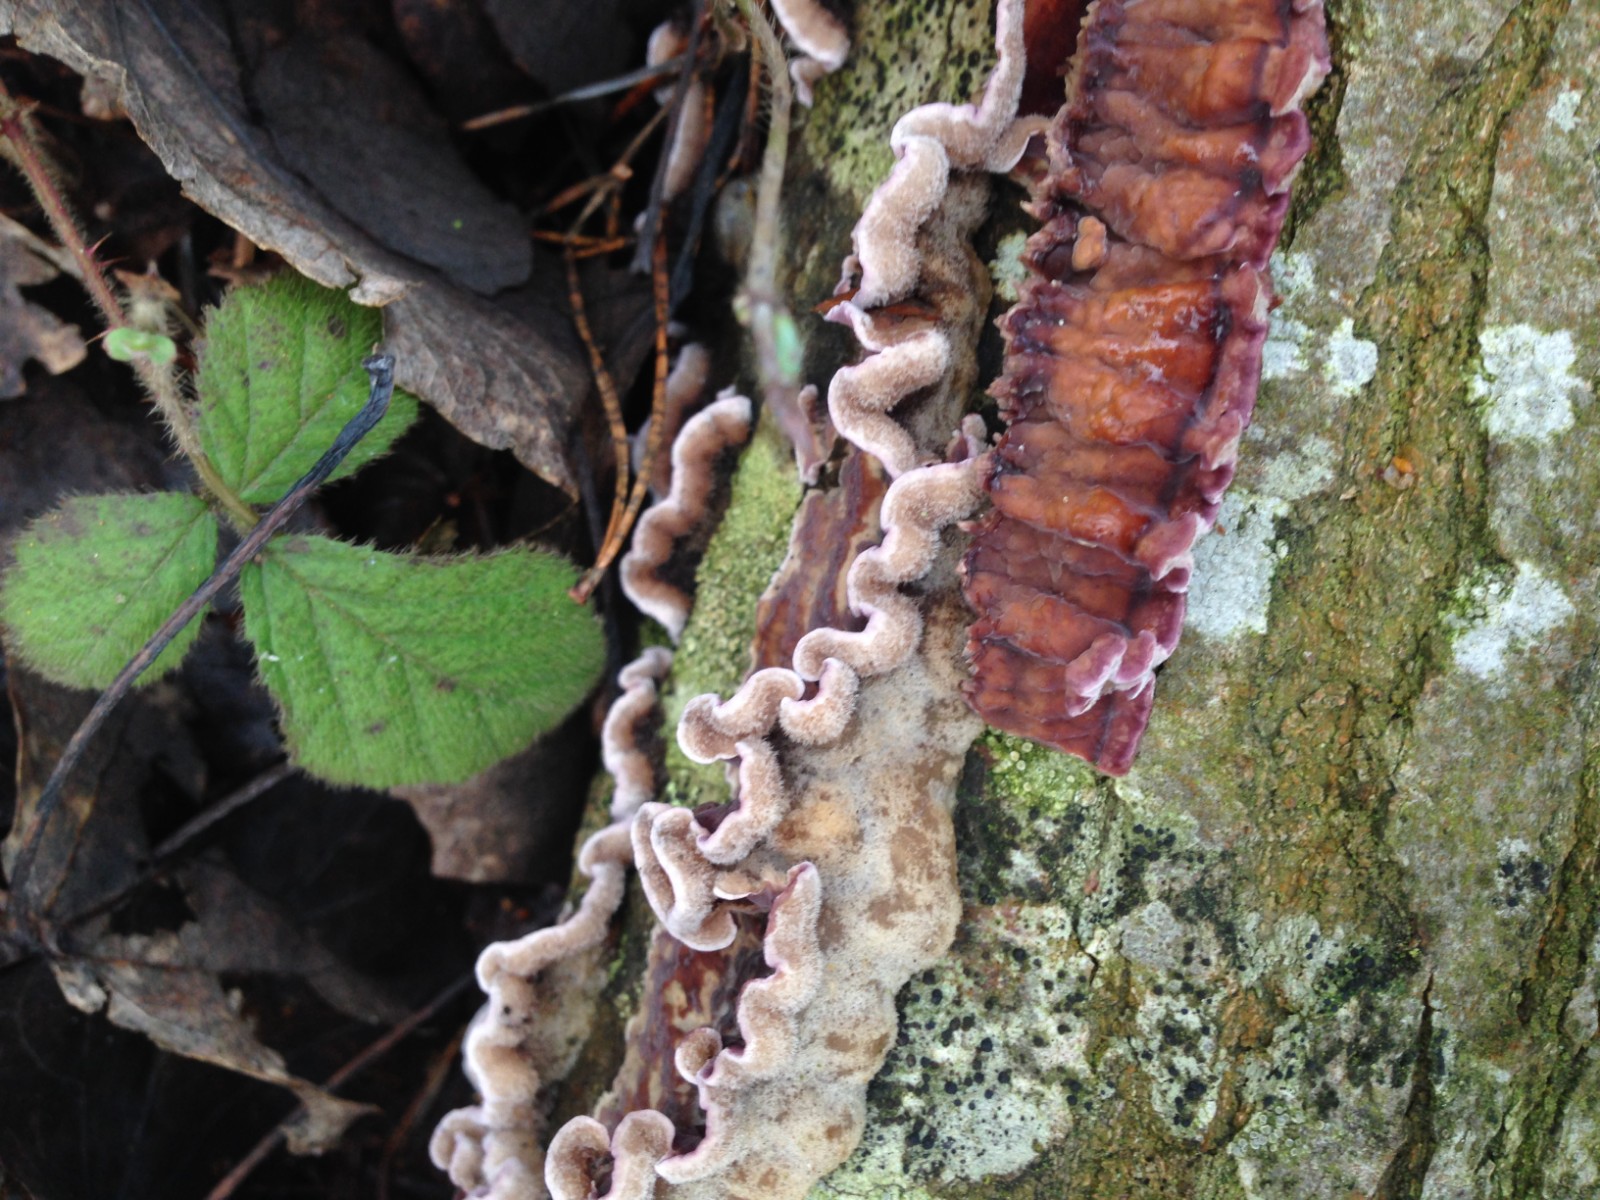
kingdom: Fungi
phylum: Basidiomycota
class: Agaricomycetes
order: Agaricales
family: Cyphellaceae
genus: Chondrostereum
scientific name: Chondrostereum purpureum
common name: purpurlædersvamp
